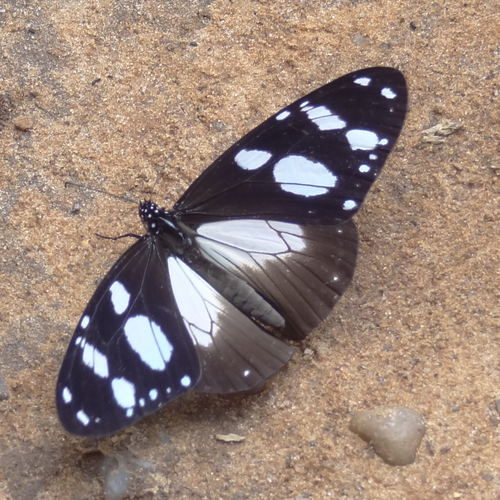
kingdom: Animalia
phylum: Arthropoda
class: Insecta
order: Lepidoptera
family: Nymphalidae
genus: Amauris
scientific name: Amauris tartarea
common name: Monk
